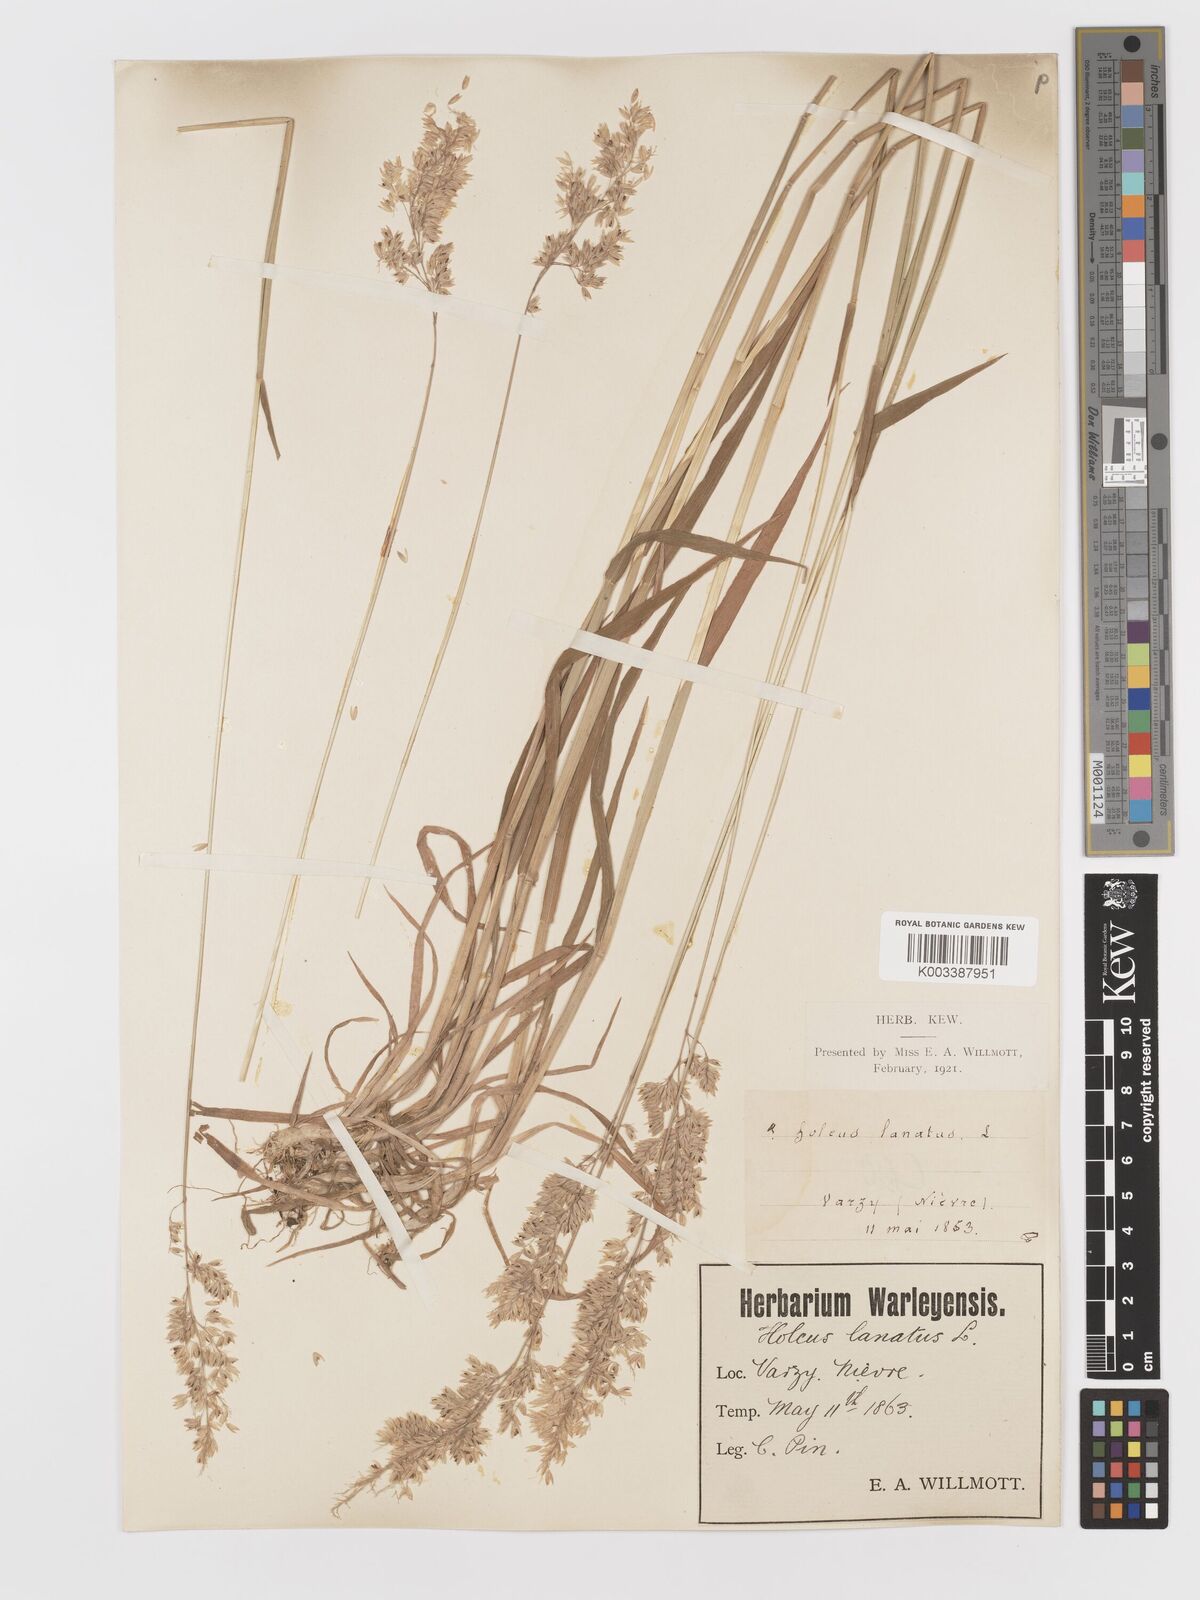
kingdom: Plantae
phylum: Tracheophyta
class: Liliopsida
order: Poales
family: Poaceae
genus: Holcus
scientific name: Holcus lanatus
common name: Yorkshire-fog
